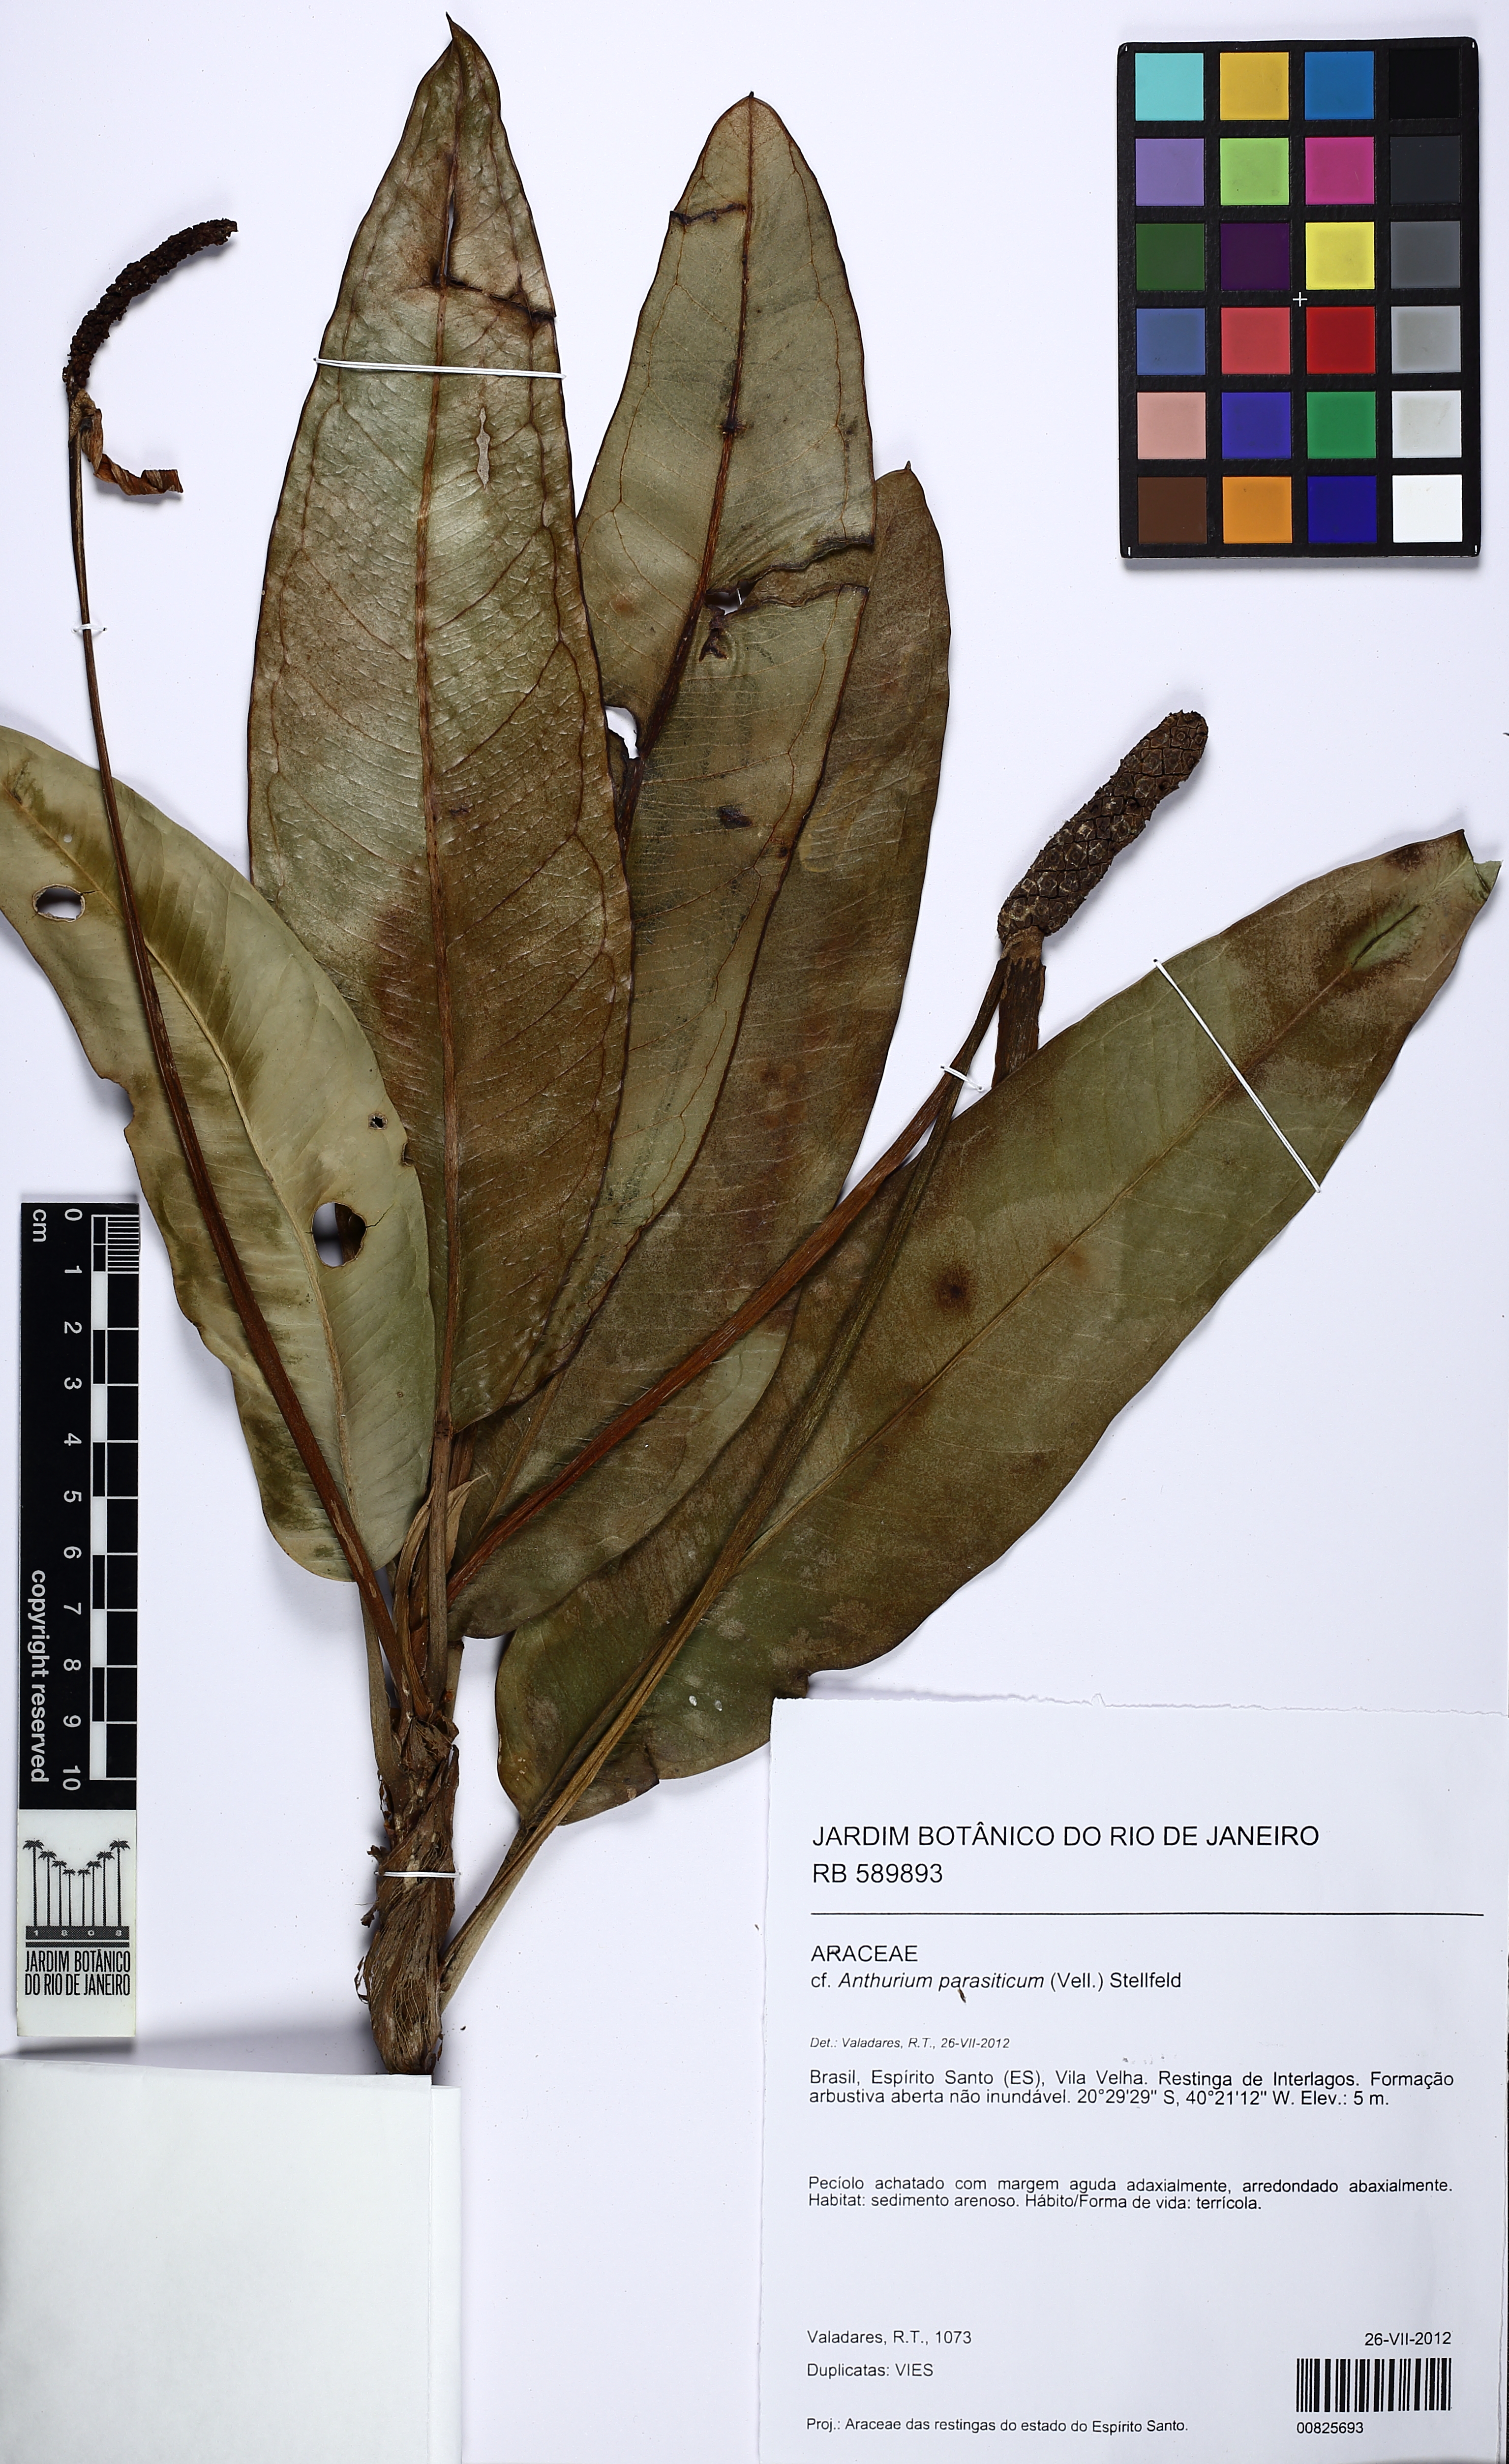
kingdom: Plantae
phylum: Tracheophyta
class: Liliopsida
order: Alismatales
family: Araceae
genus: Anthurium
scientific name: Anthurium parasiticum
